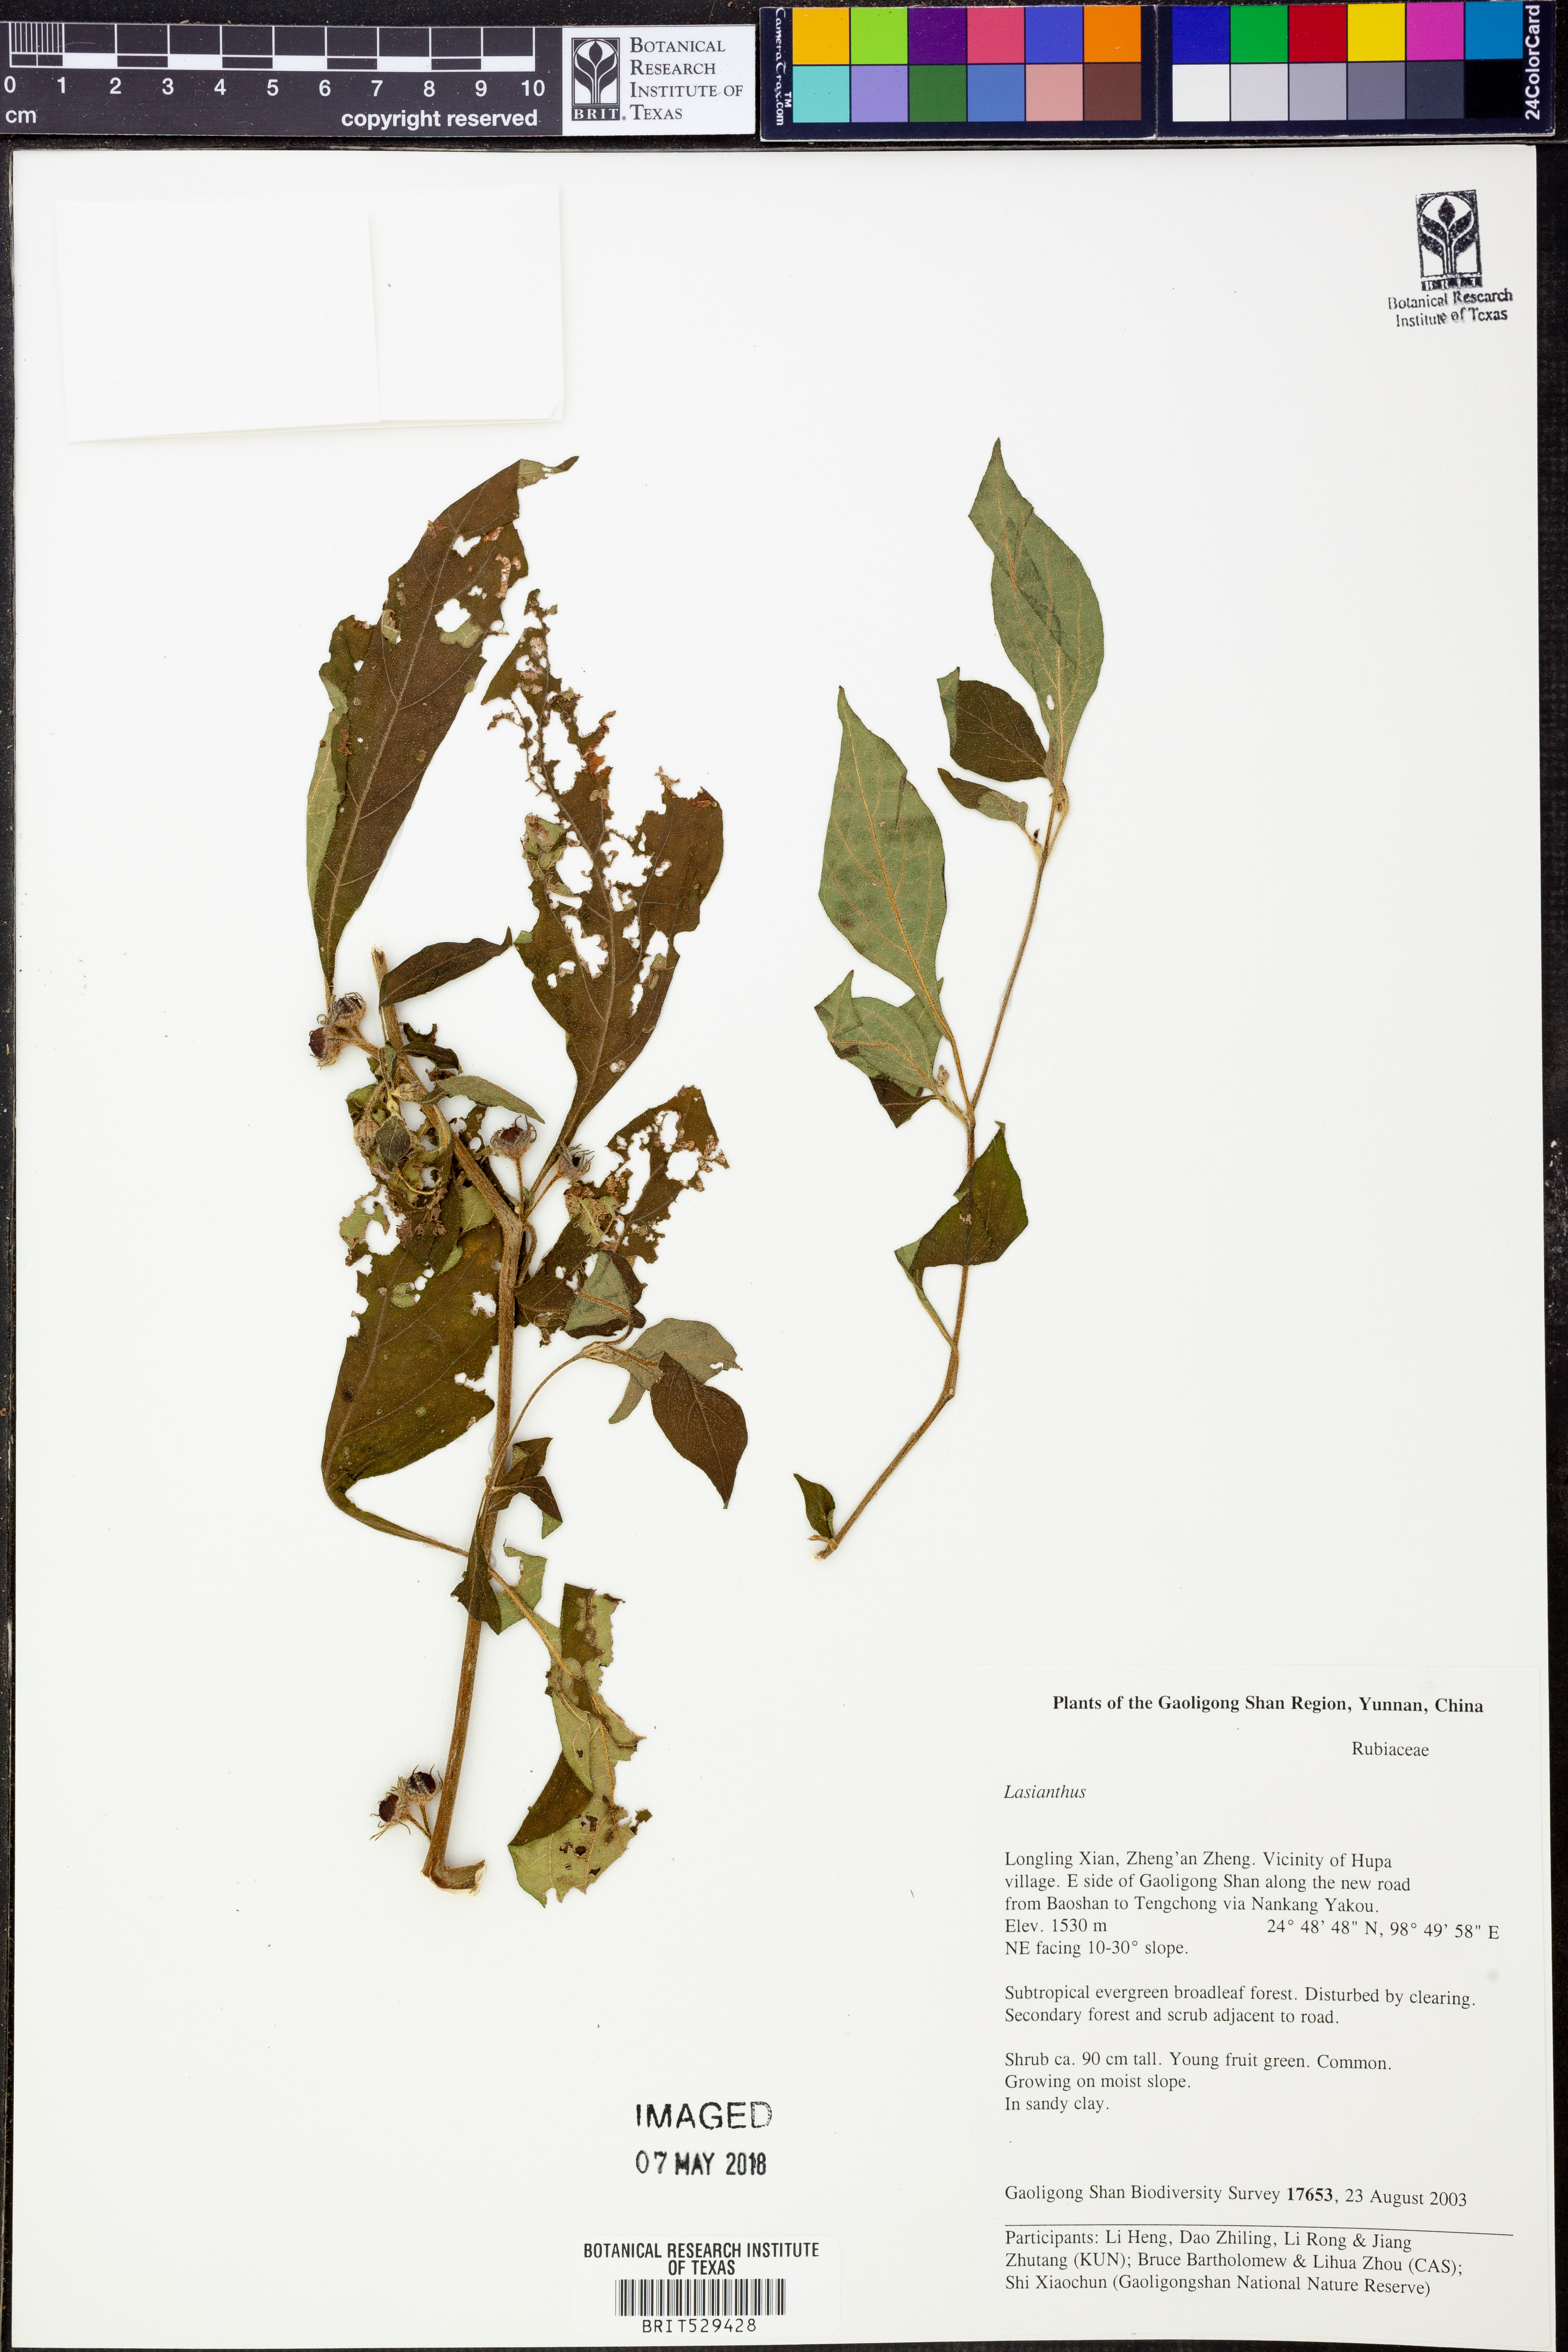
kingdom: Plantae
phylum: Tracheophyta
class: Magnoliopsida
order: Gentianales
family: Rubiaceae
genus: Lasianthus
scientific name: Lasianthus
